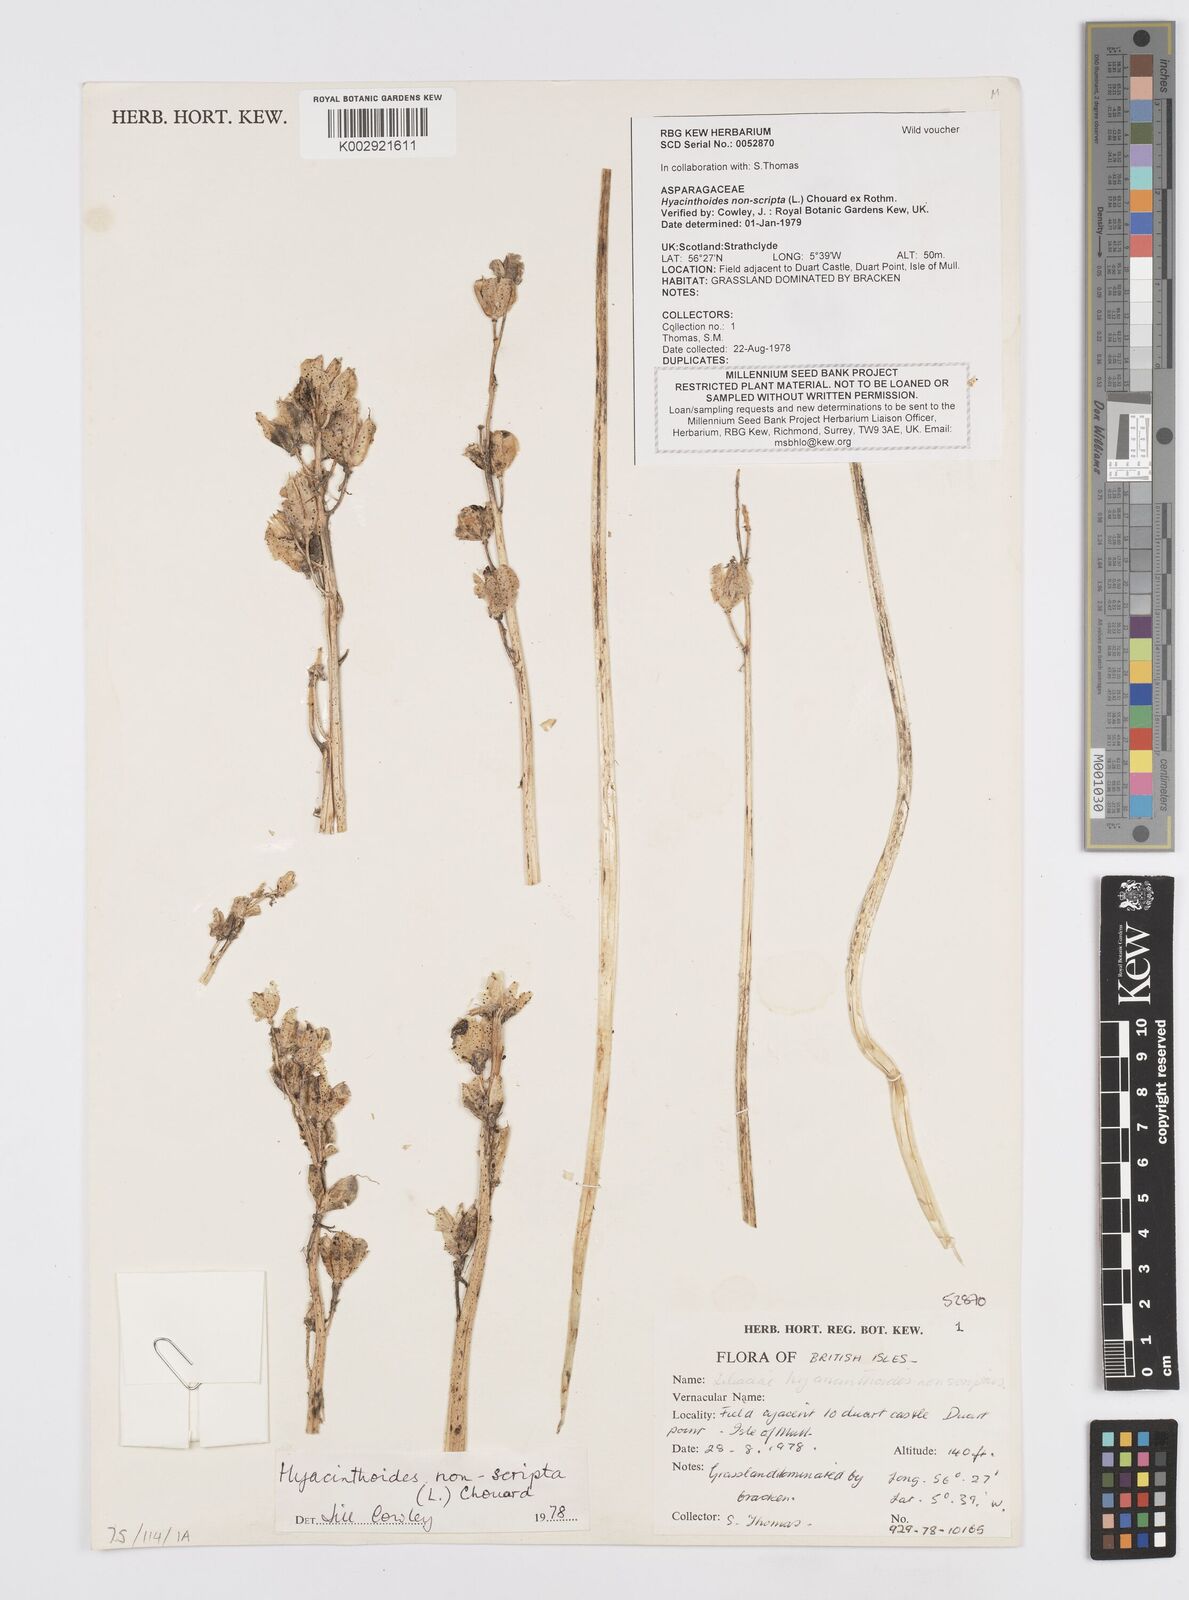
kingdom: Plantae
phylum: Tracheophyta
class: Liliopsida
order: Asparagales
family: Asparagaceae
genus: Hyacinthoides
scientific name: Hyacinthoides non-scripta
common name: Bluebell
